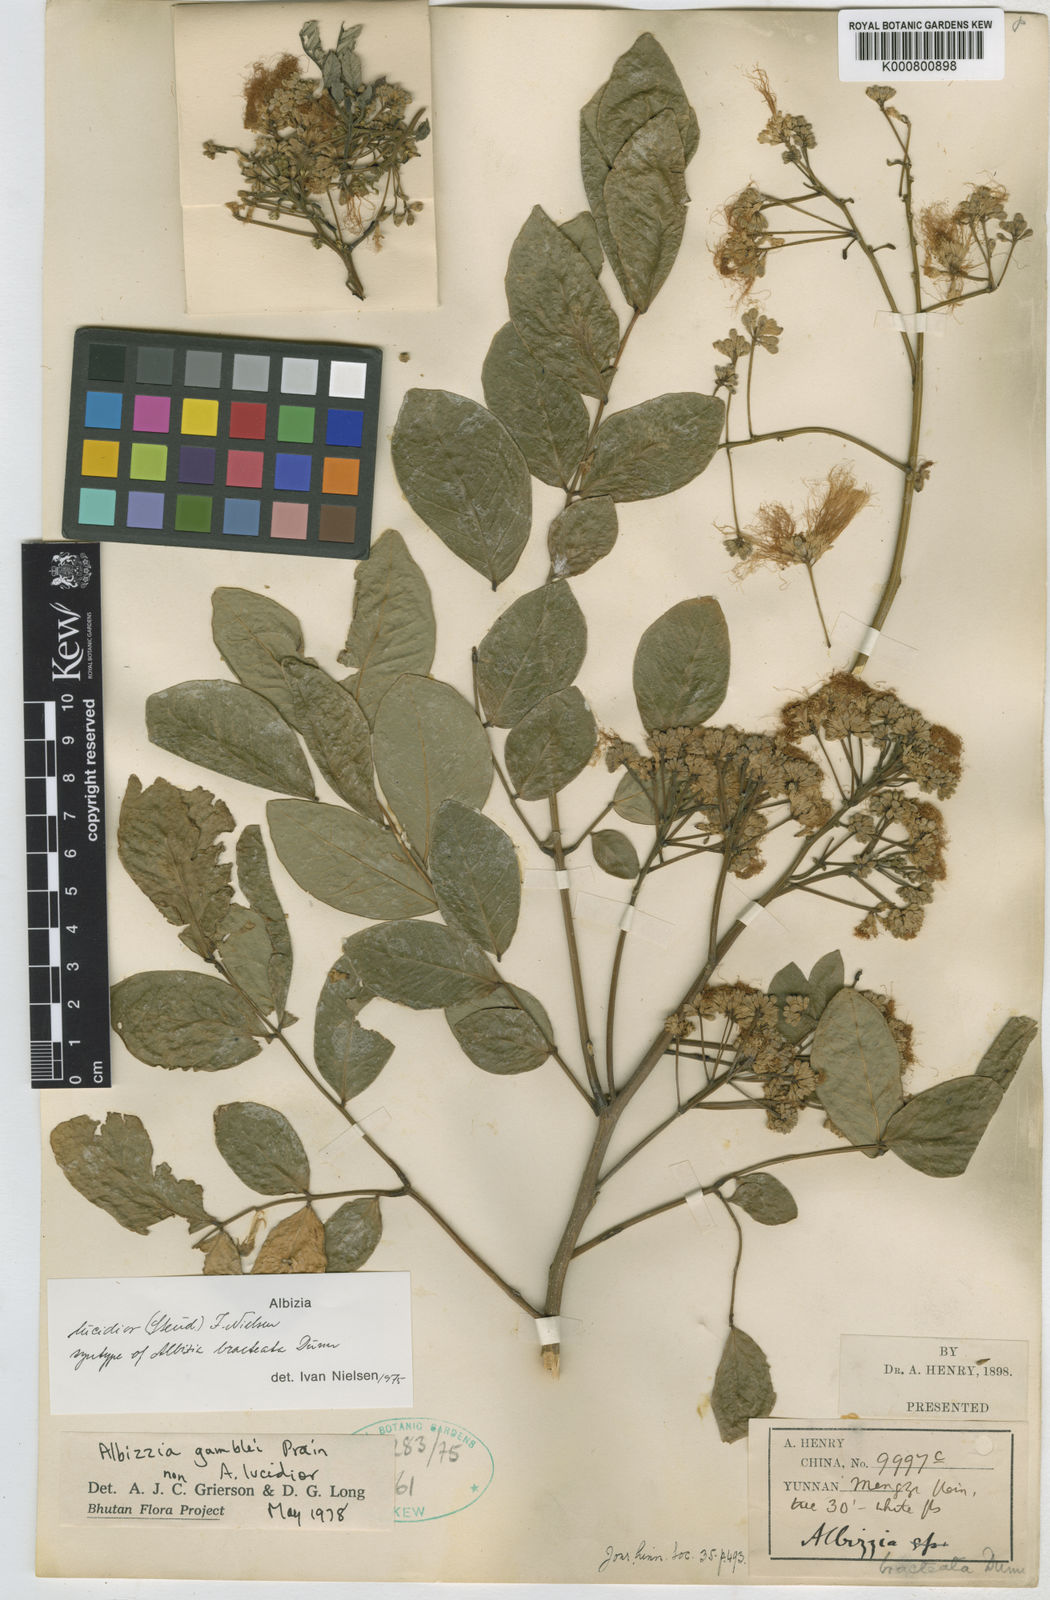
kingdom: Plantae
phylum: Tracheophyta
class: Magnoliopsida
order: Fabales
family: Fabaceae
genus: Albizia
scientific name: Albizia lucidior
